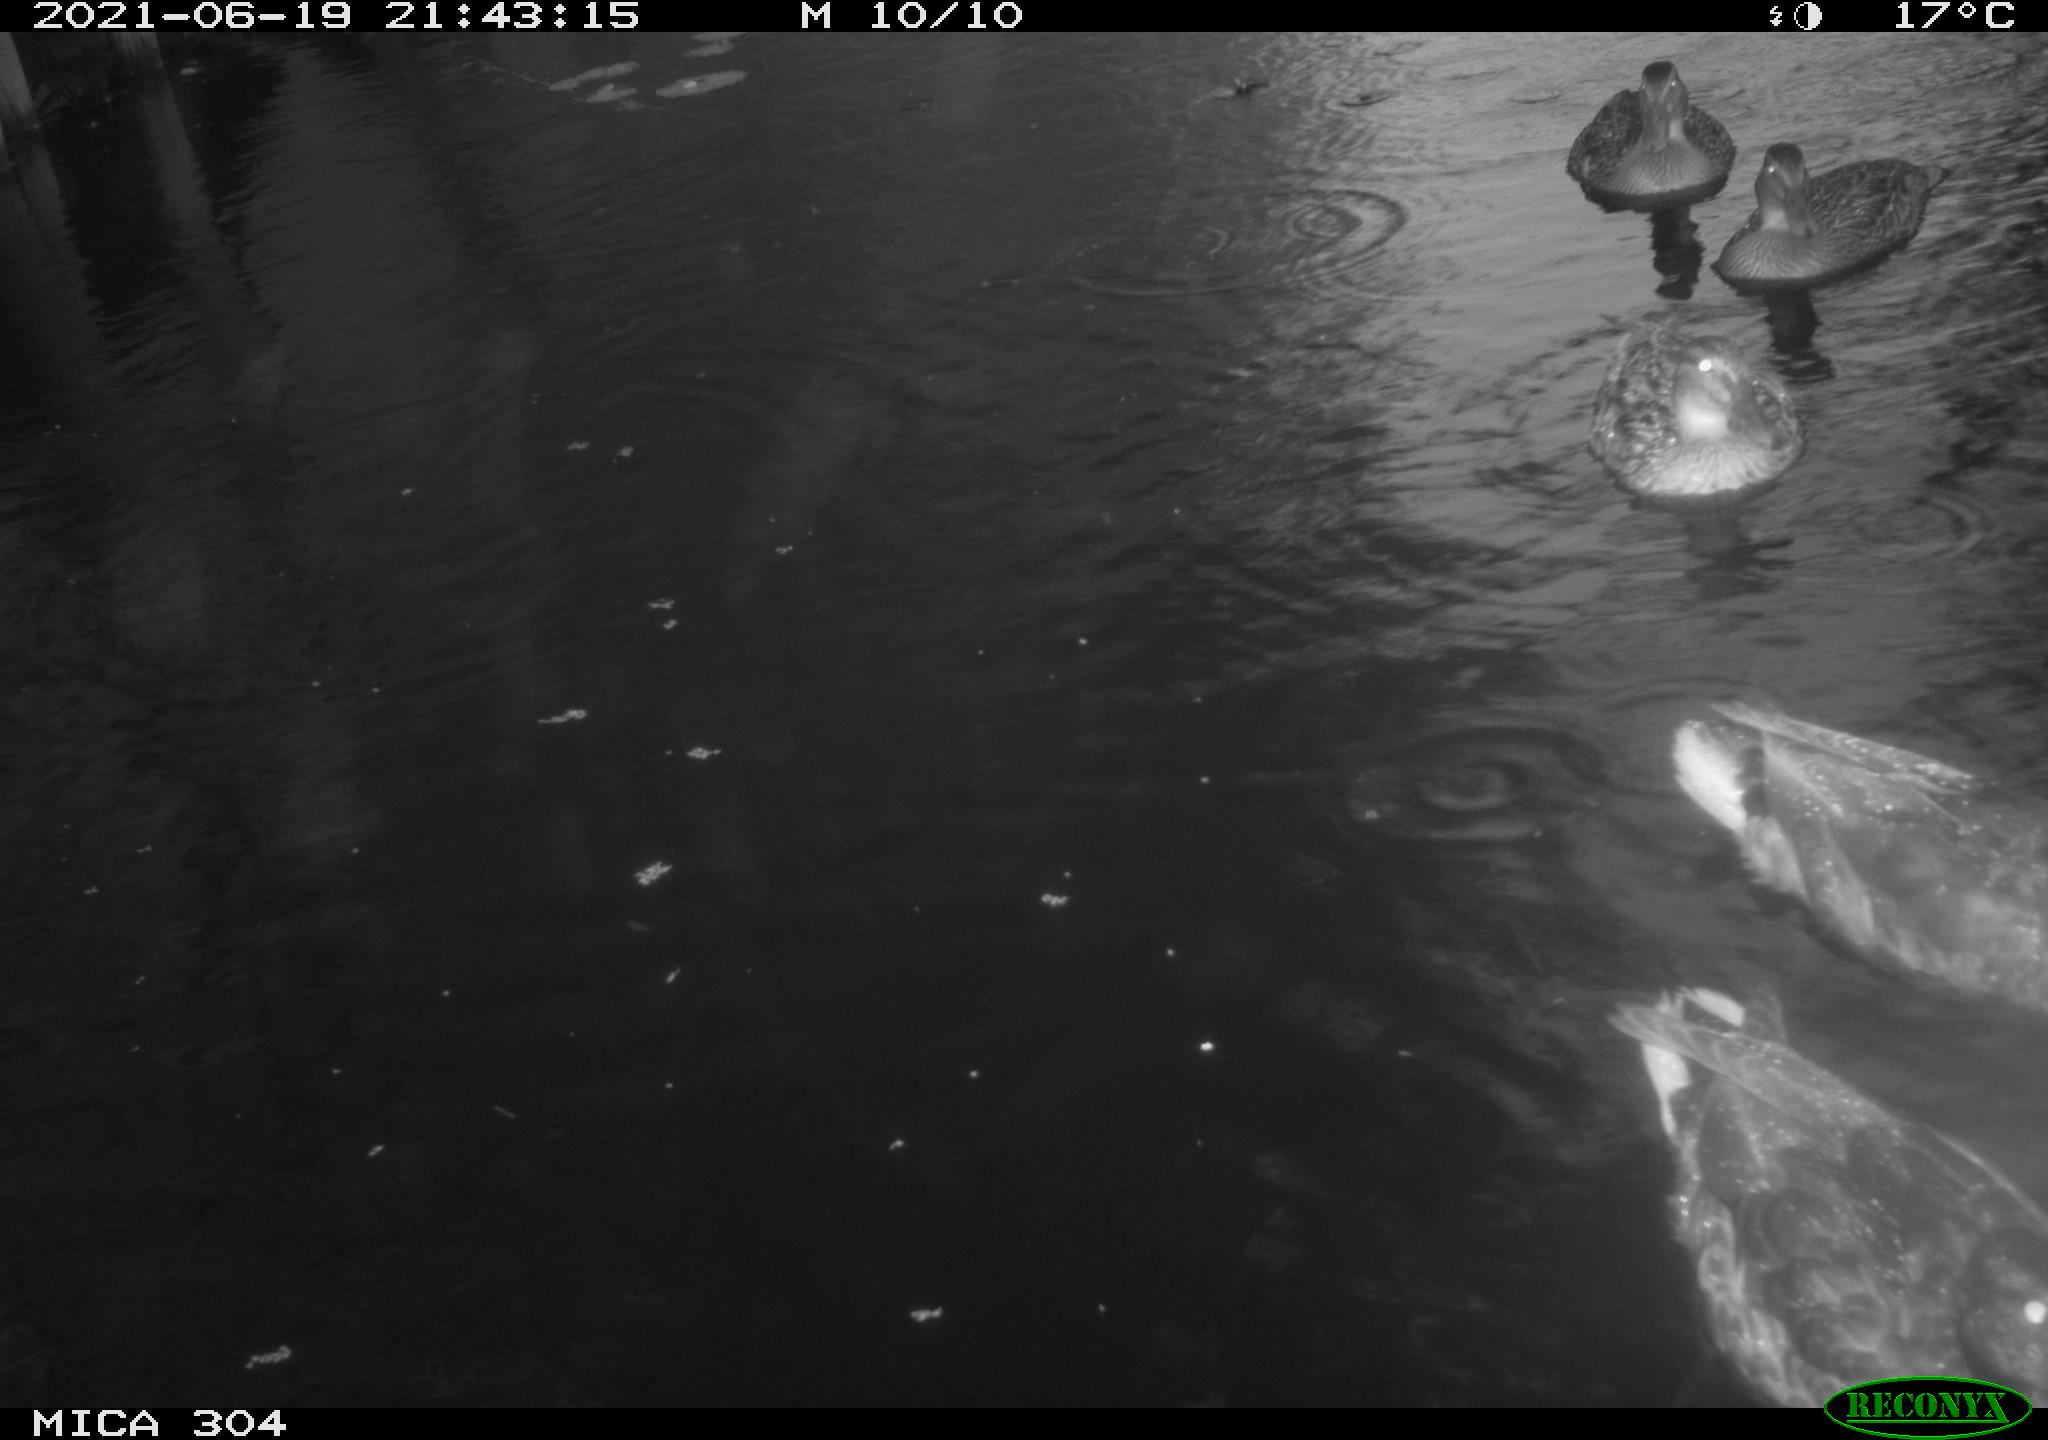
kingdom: Animalia
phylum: Chordata
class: Aves
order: Anseriformes
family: Anatidae
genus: Mareca
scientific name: Mareca strepera
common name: Gadwall
